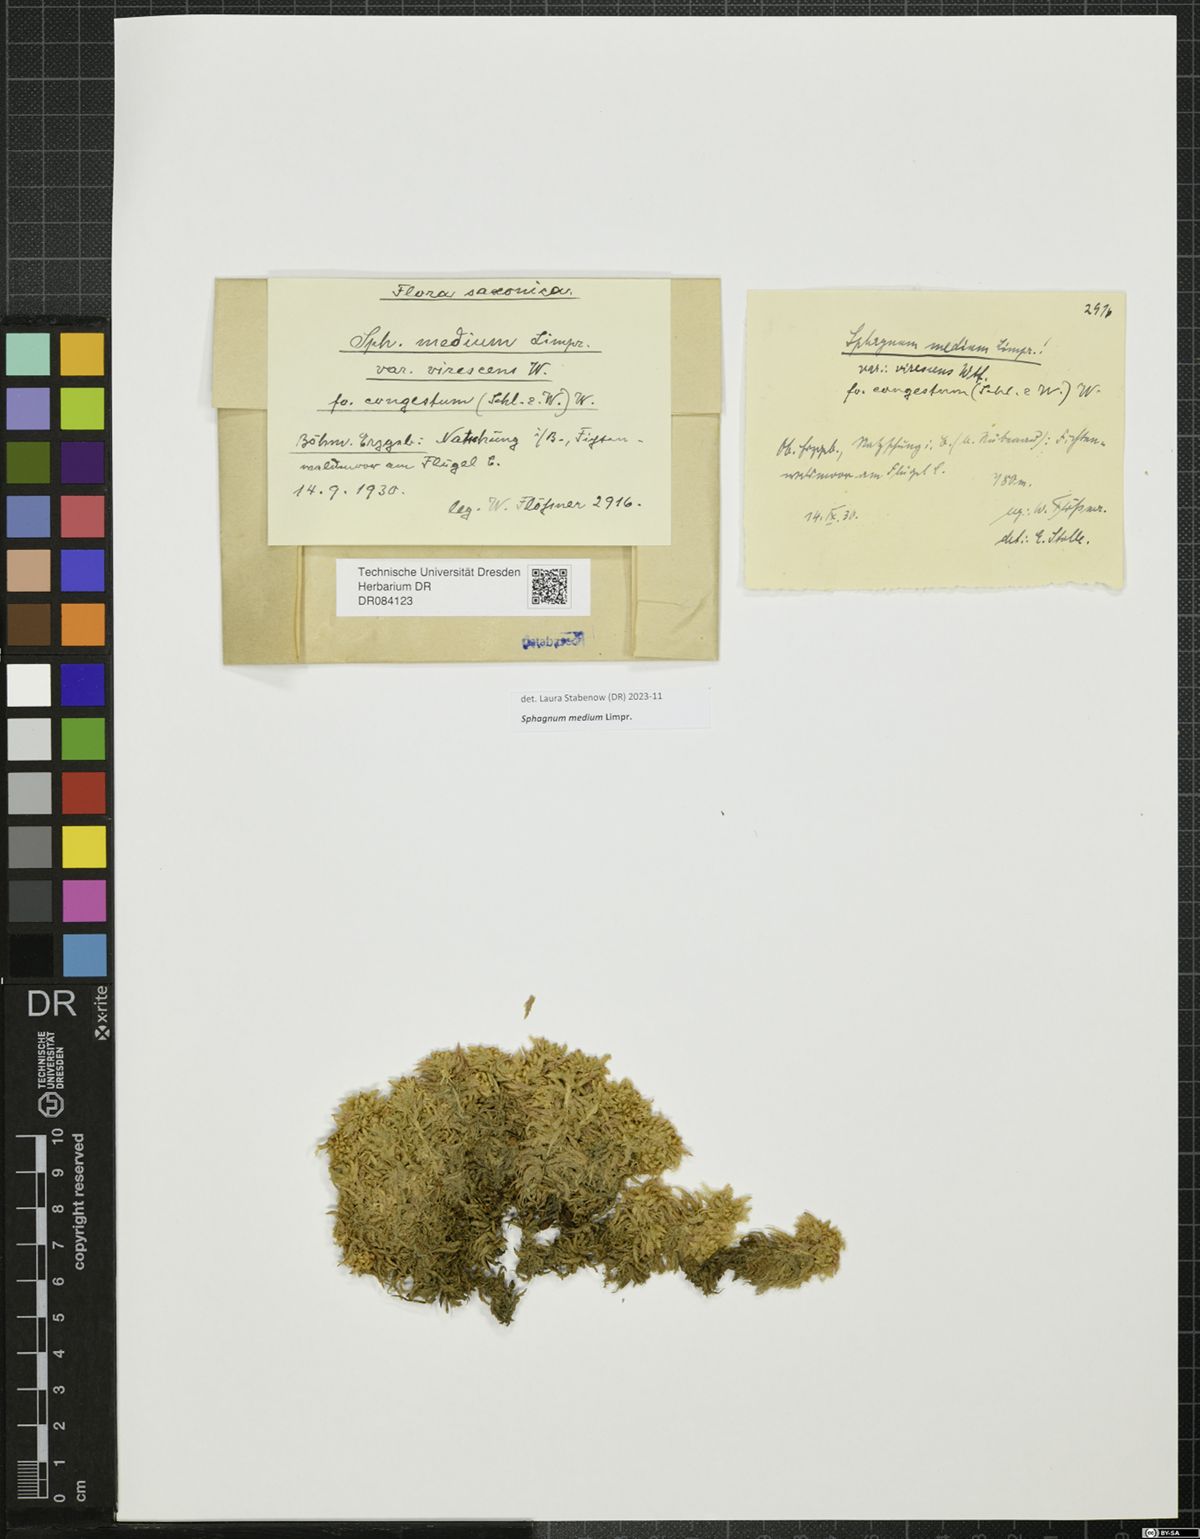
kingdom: Plantae
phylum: Bryophyta
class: Sphagnopsida
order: Sphagnales
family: Sphagnaceae
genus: Sphagnum
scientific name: Sphagnum medium
